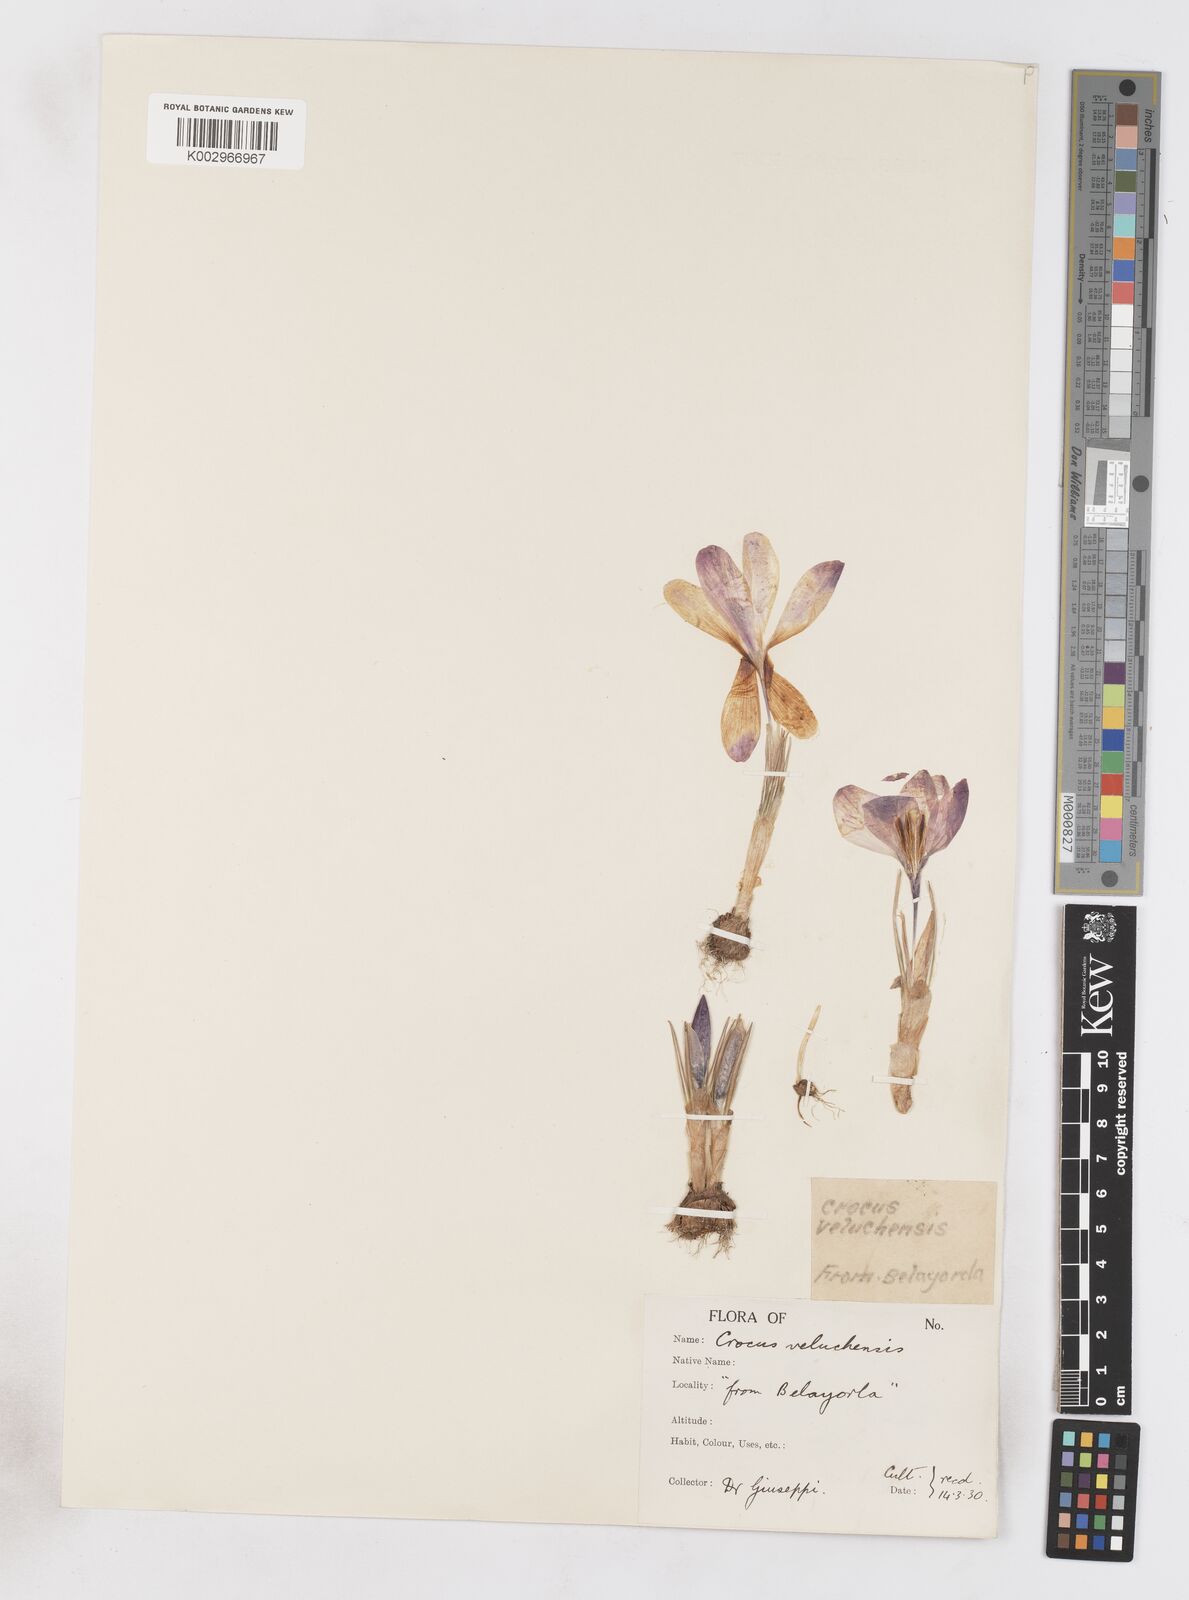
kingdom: Plantae
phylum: Tracheophyta
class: Liliopsida
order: Asparagales
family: Iridaceae
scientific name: Iridaceae
